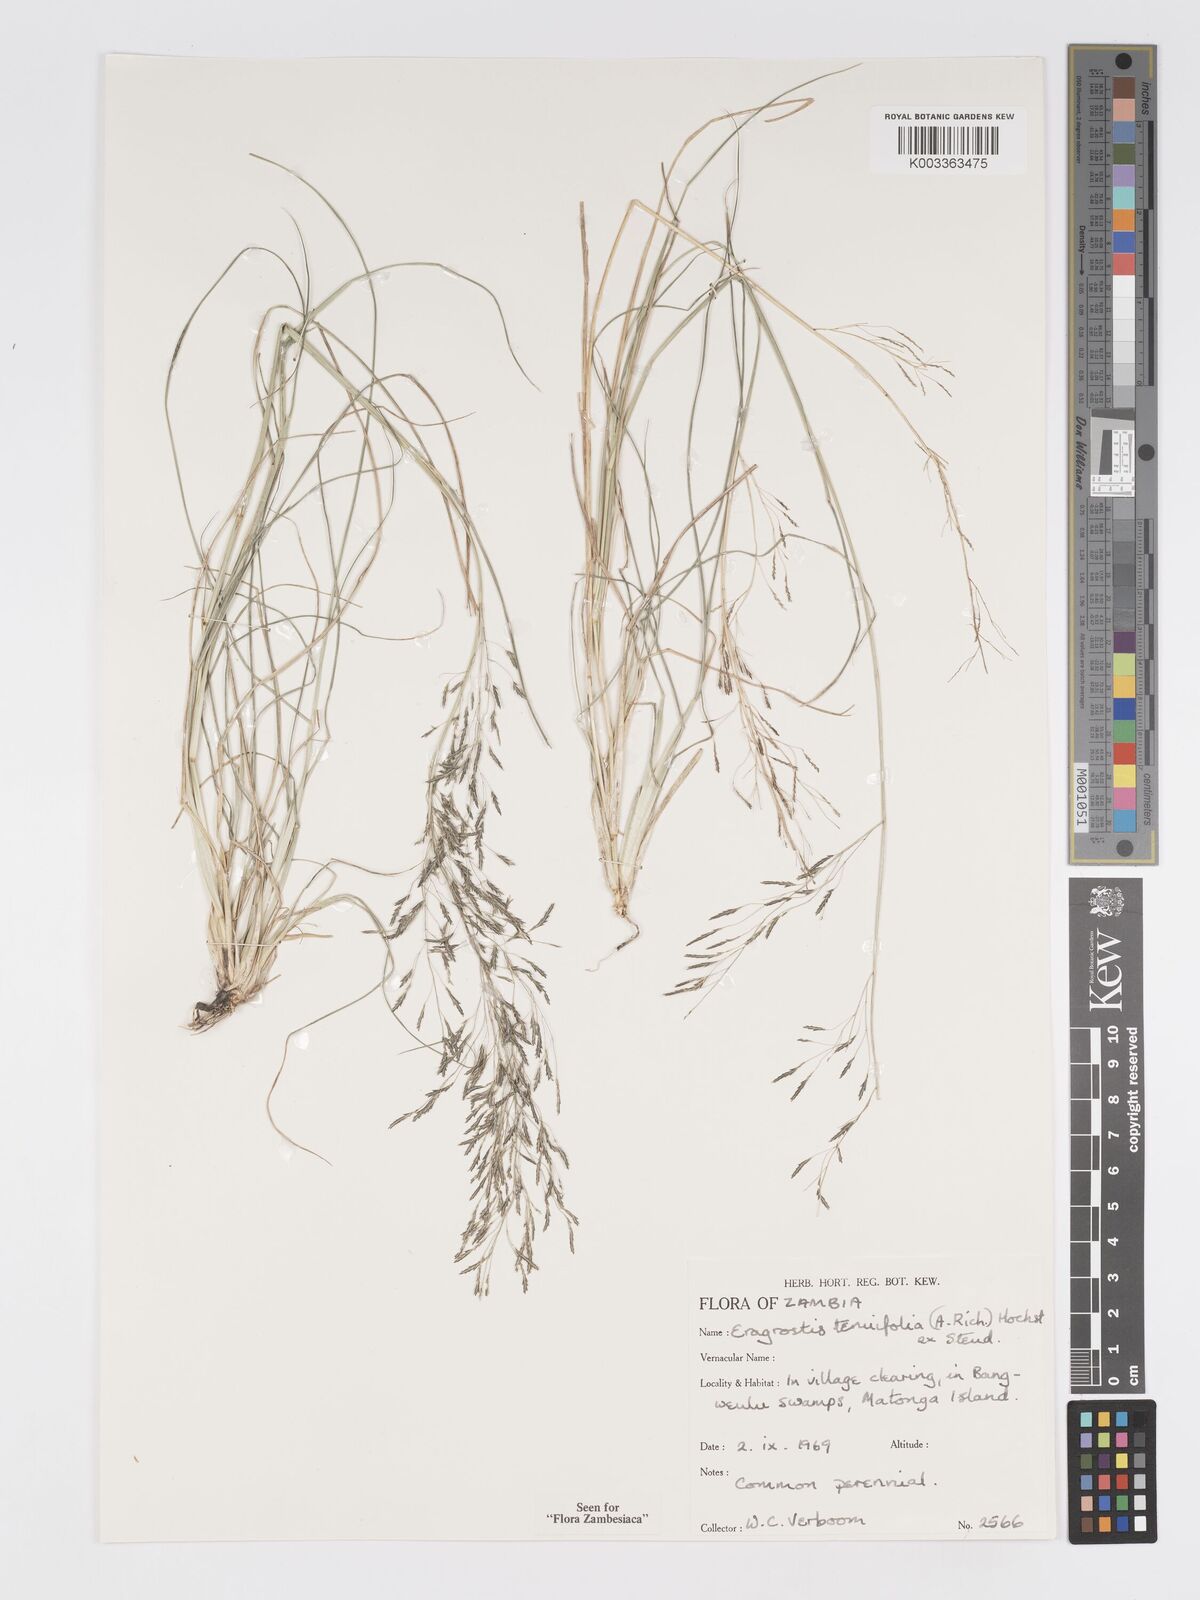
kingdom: Plantae
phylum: Tracheophyta
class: Liliopsida
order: Poales
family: Poaceae
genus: Eragrostis
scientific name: Eragrostis tenuifolia
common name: Elastic grass
